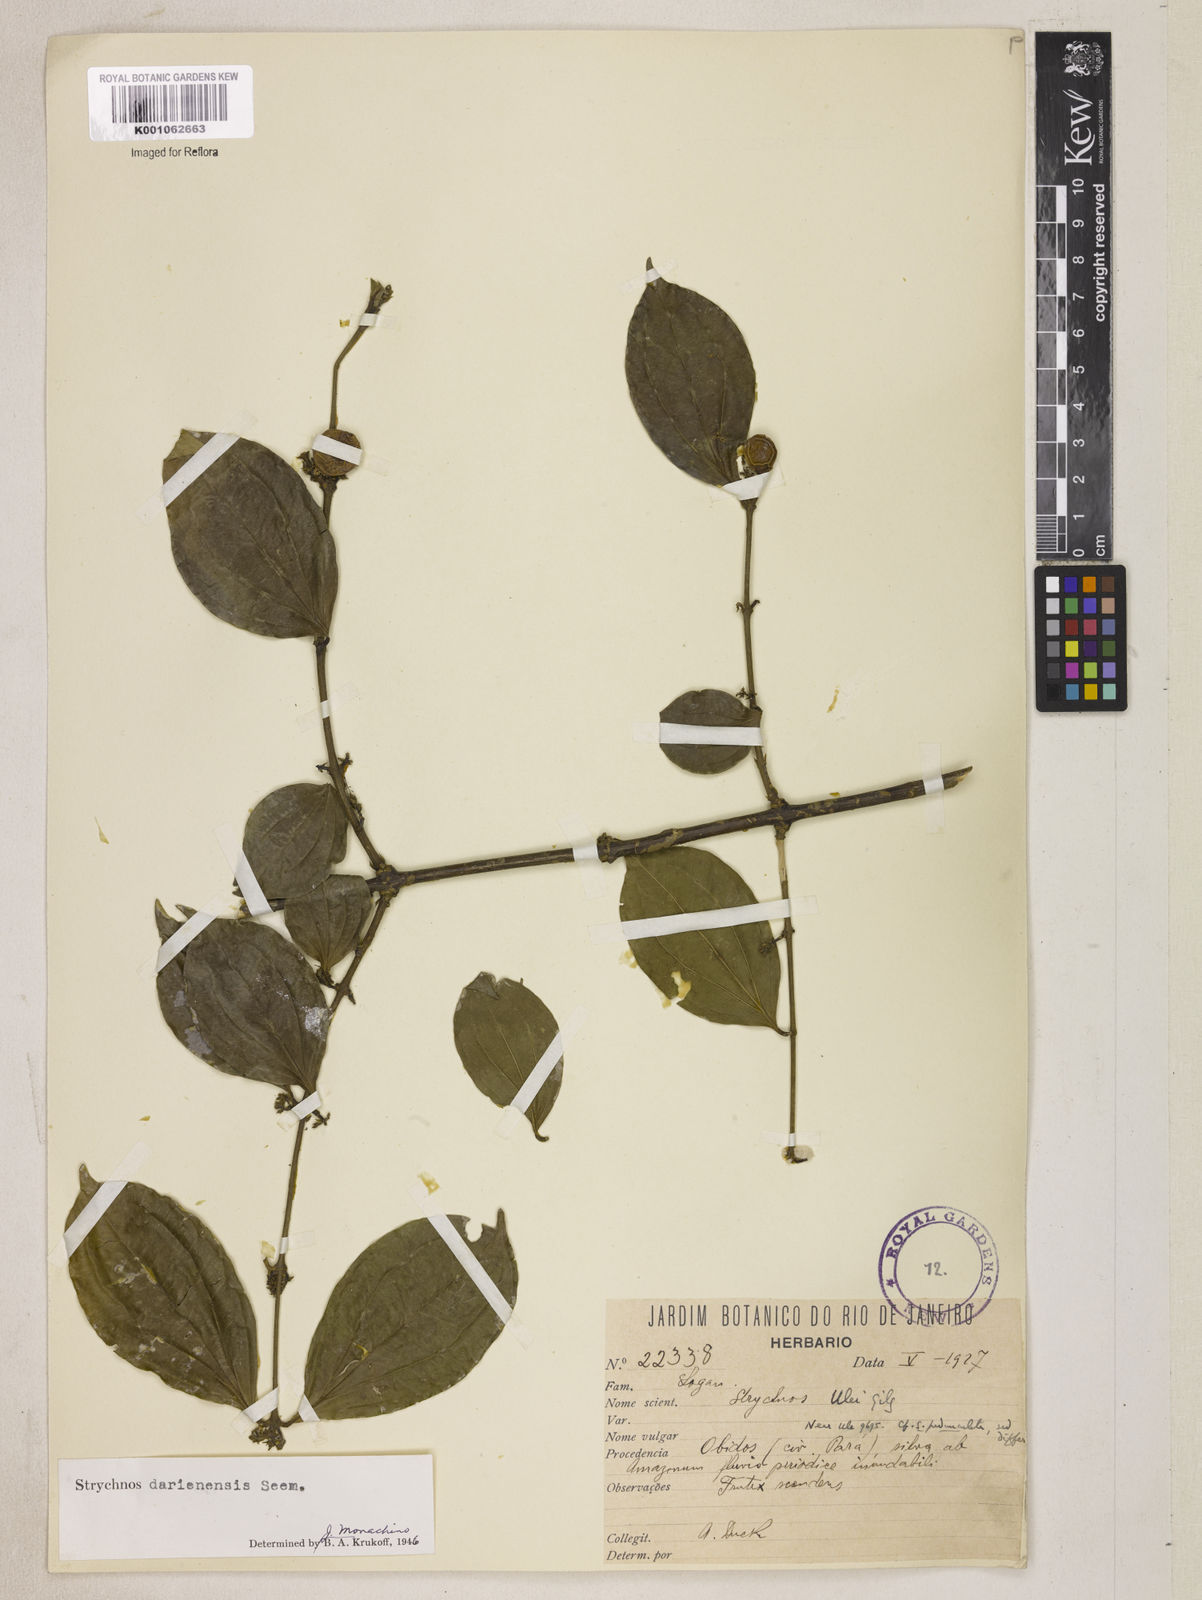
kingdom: Plantae
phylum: Tracheophyta
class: Magnoliopsida
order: Gentianales
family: Loganiaceae
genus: Strychnos
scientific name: Strychnos darienensis
